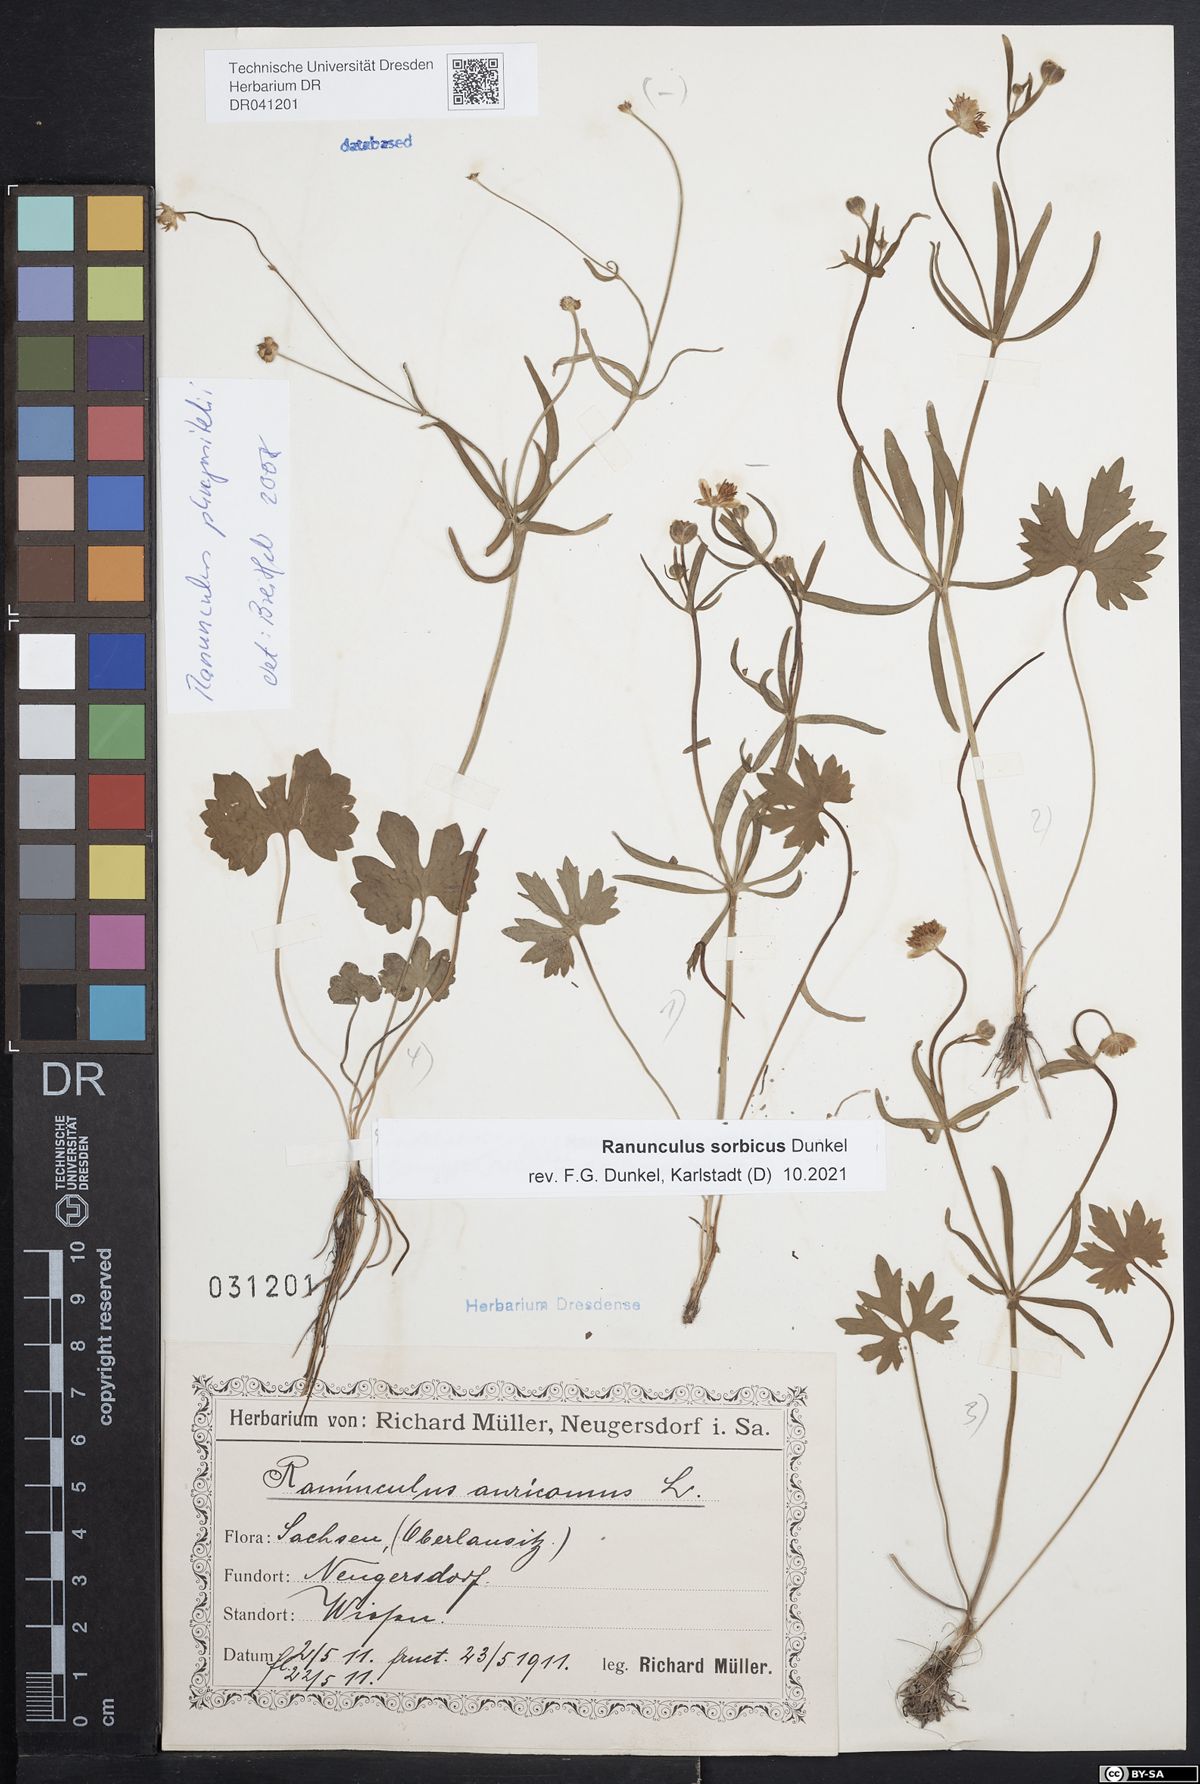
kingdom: Plantae
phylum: Tracheophyta
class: Magnoliopsida
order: Ranunculales
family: Ranunculaceae
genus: Ranunculus
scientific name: Ranunculus sorbicus
